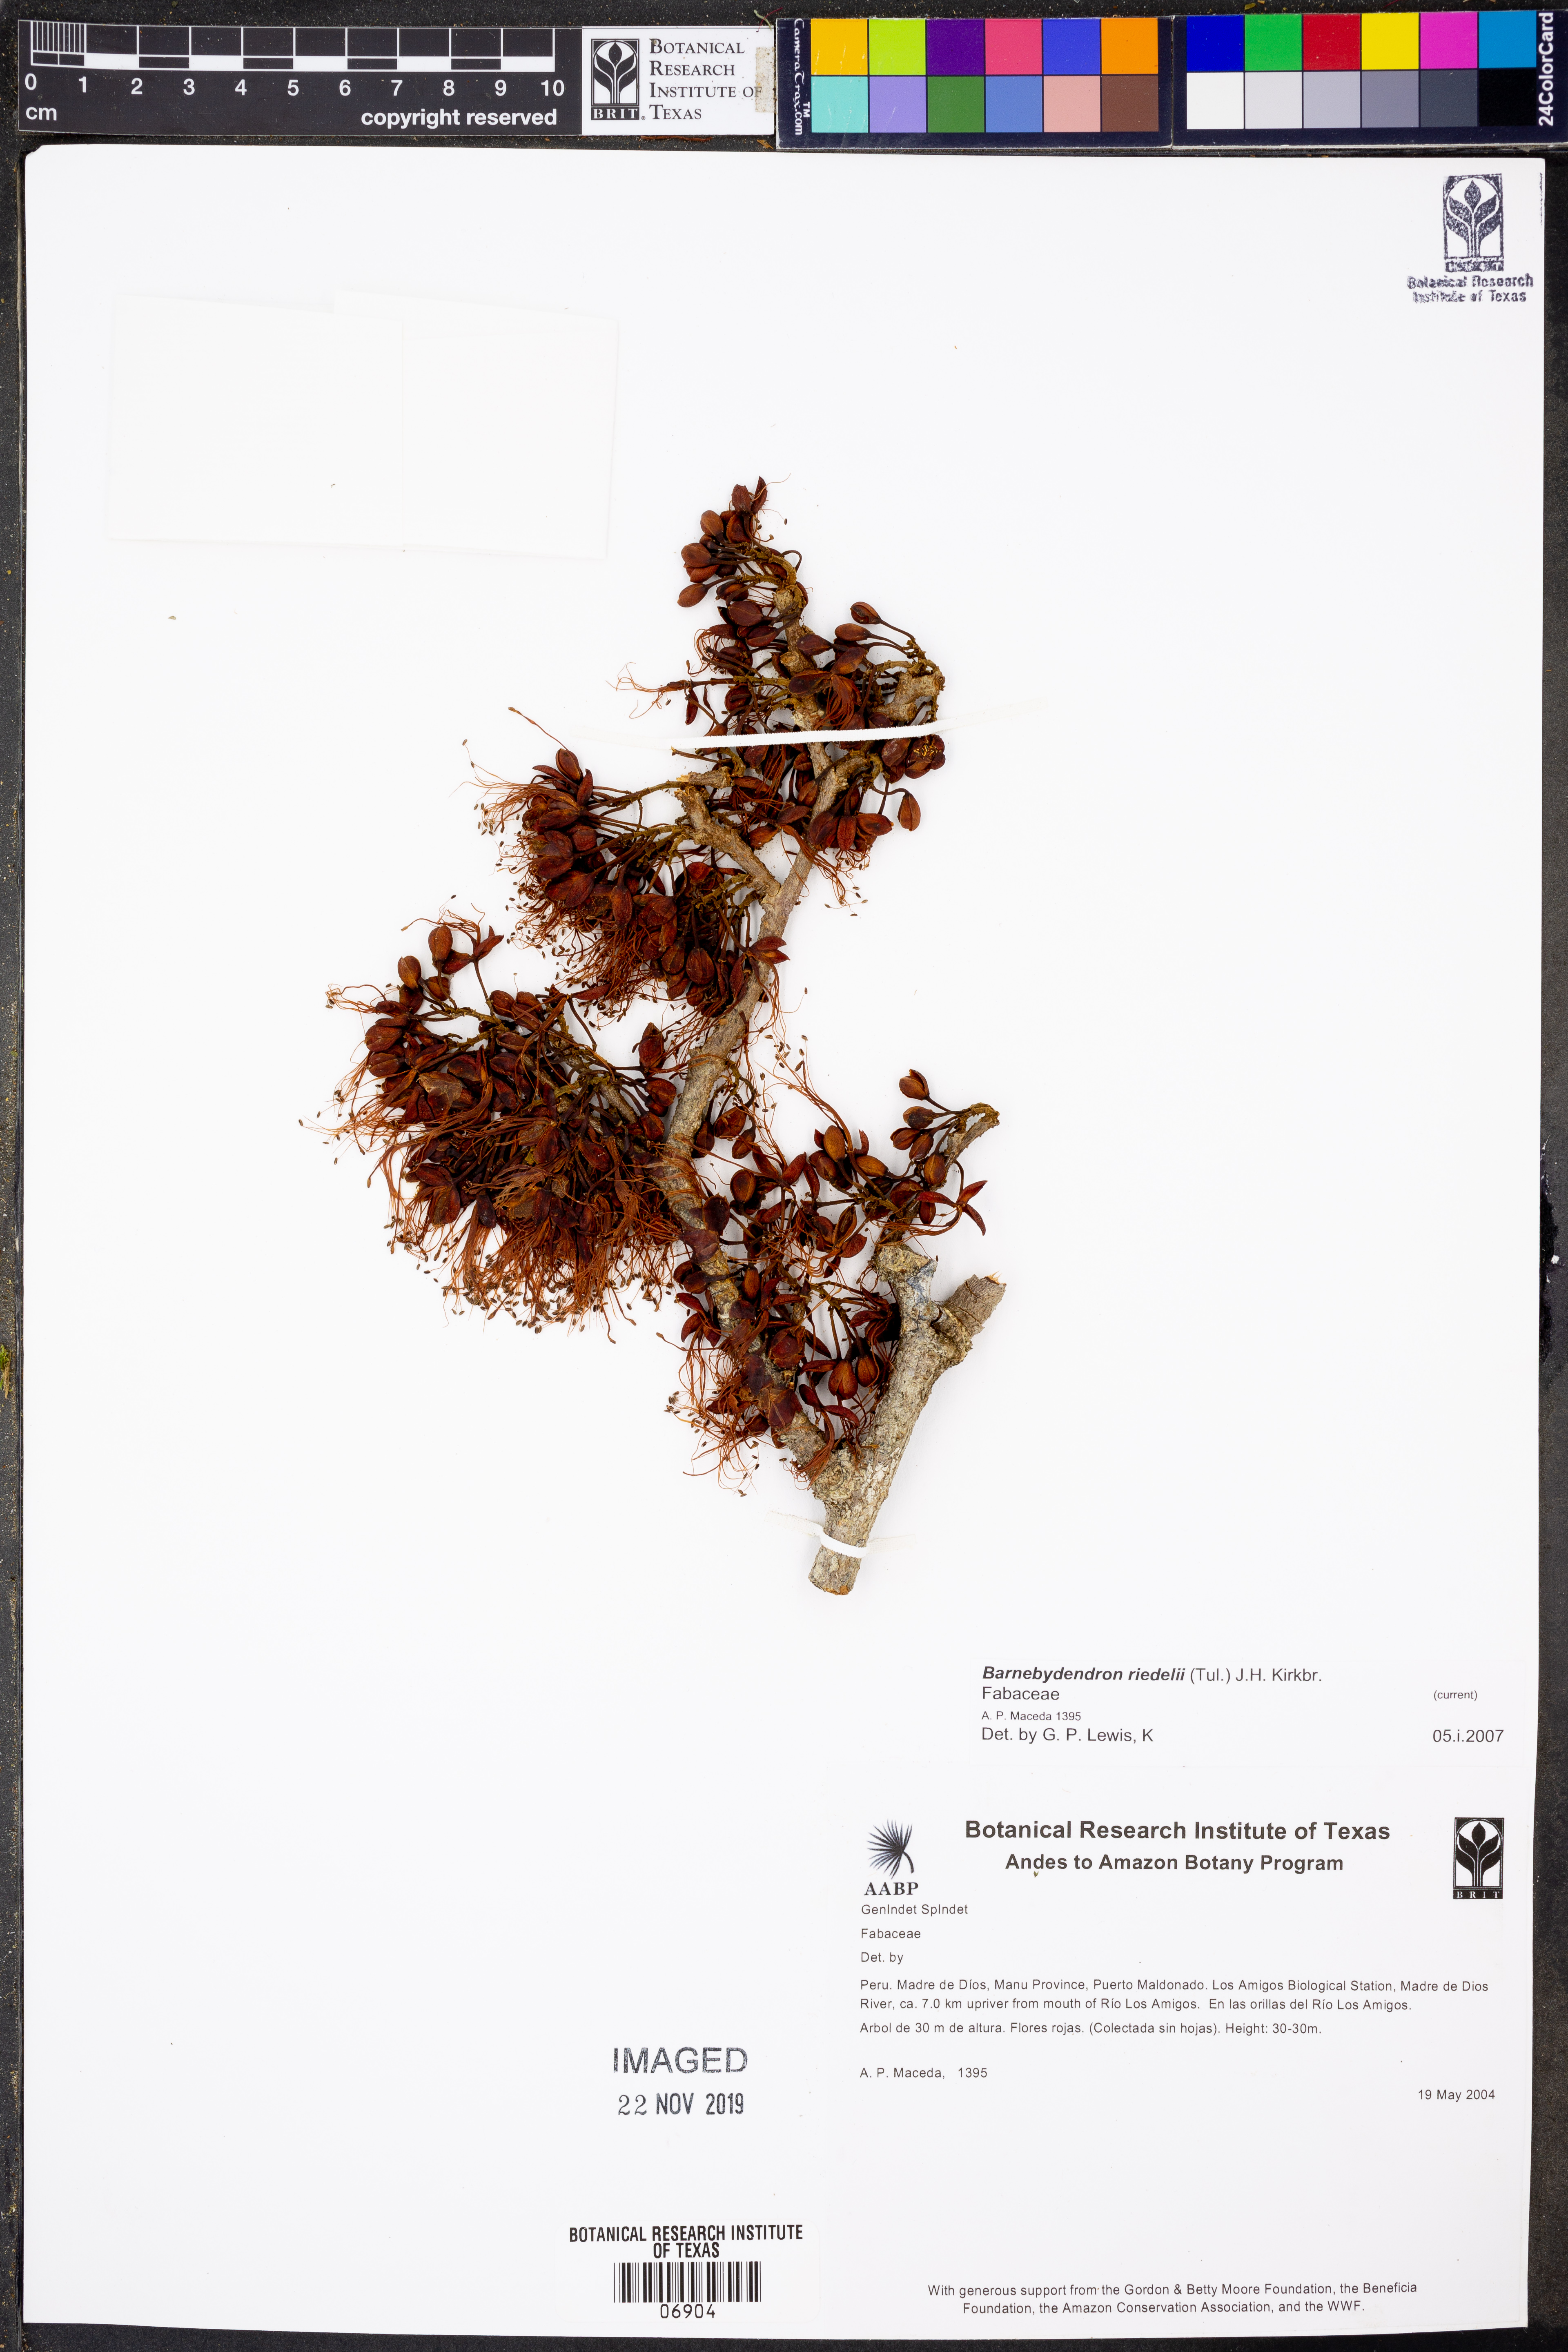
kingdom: Plantae
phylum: Tracheophyta
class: Magnoliopsida
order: Fabales
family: Fabaceae
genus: Barnebydendron
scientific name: Barnebydendron riedelii
